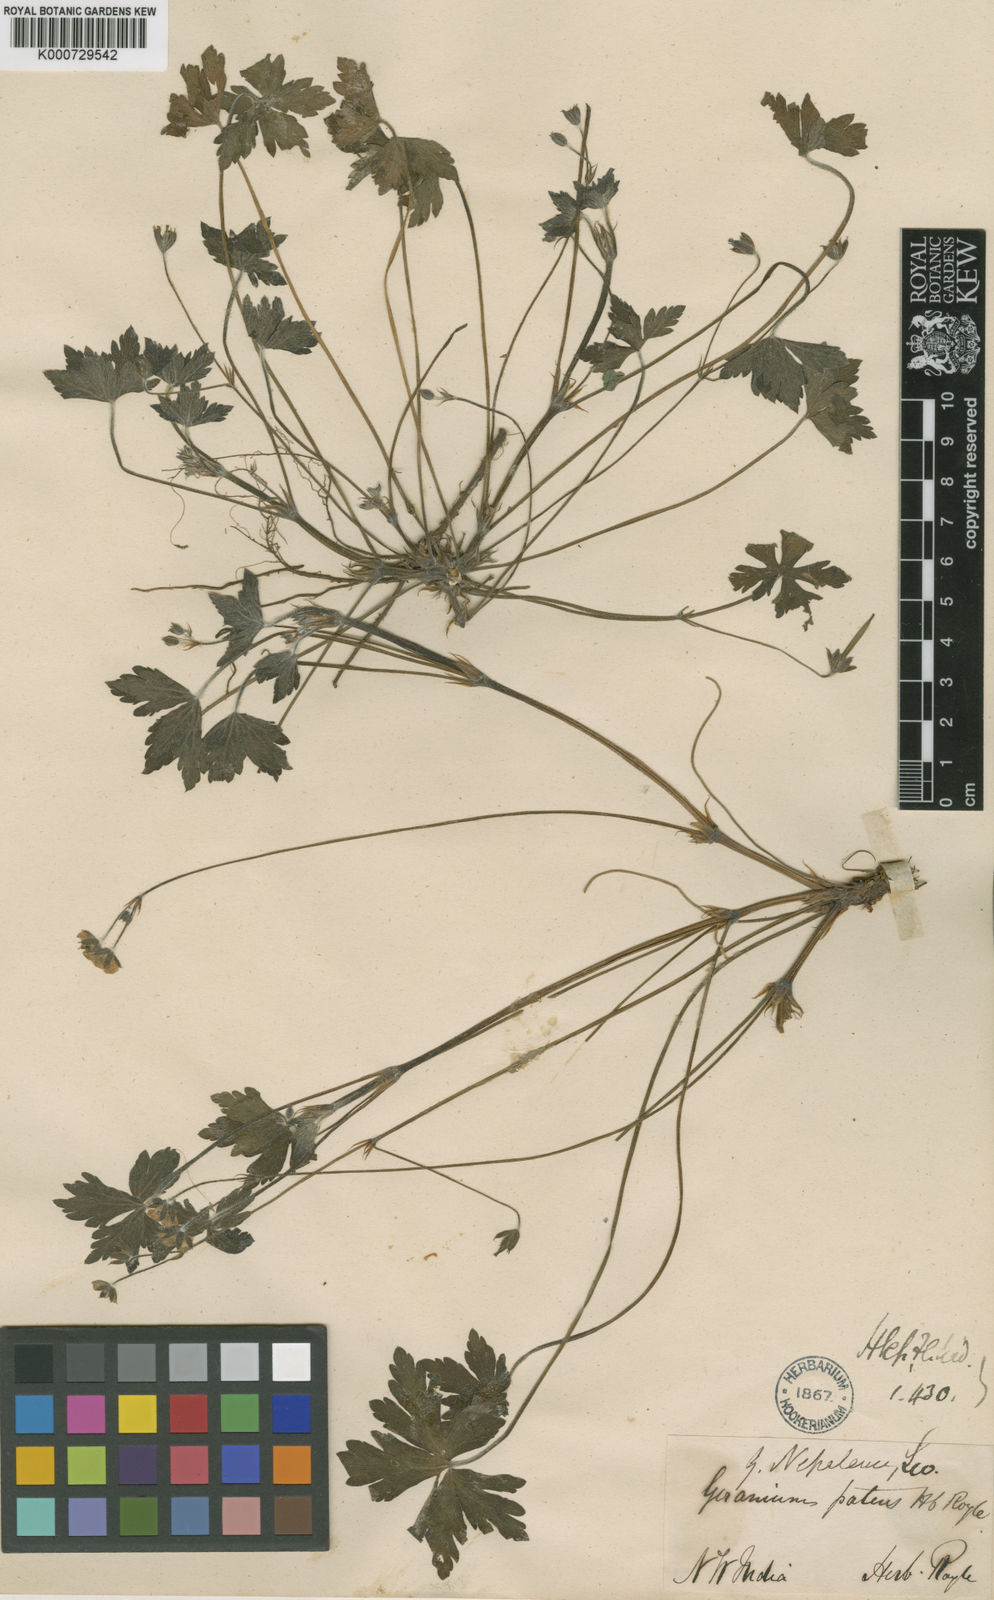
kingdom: Plantae
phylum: Tracheophyta
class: Magnoliopsida
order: Geraniales
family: Geraniaceae
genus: Geranium
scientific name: Geranium nepalense
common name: Nepalese crane's-bill
